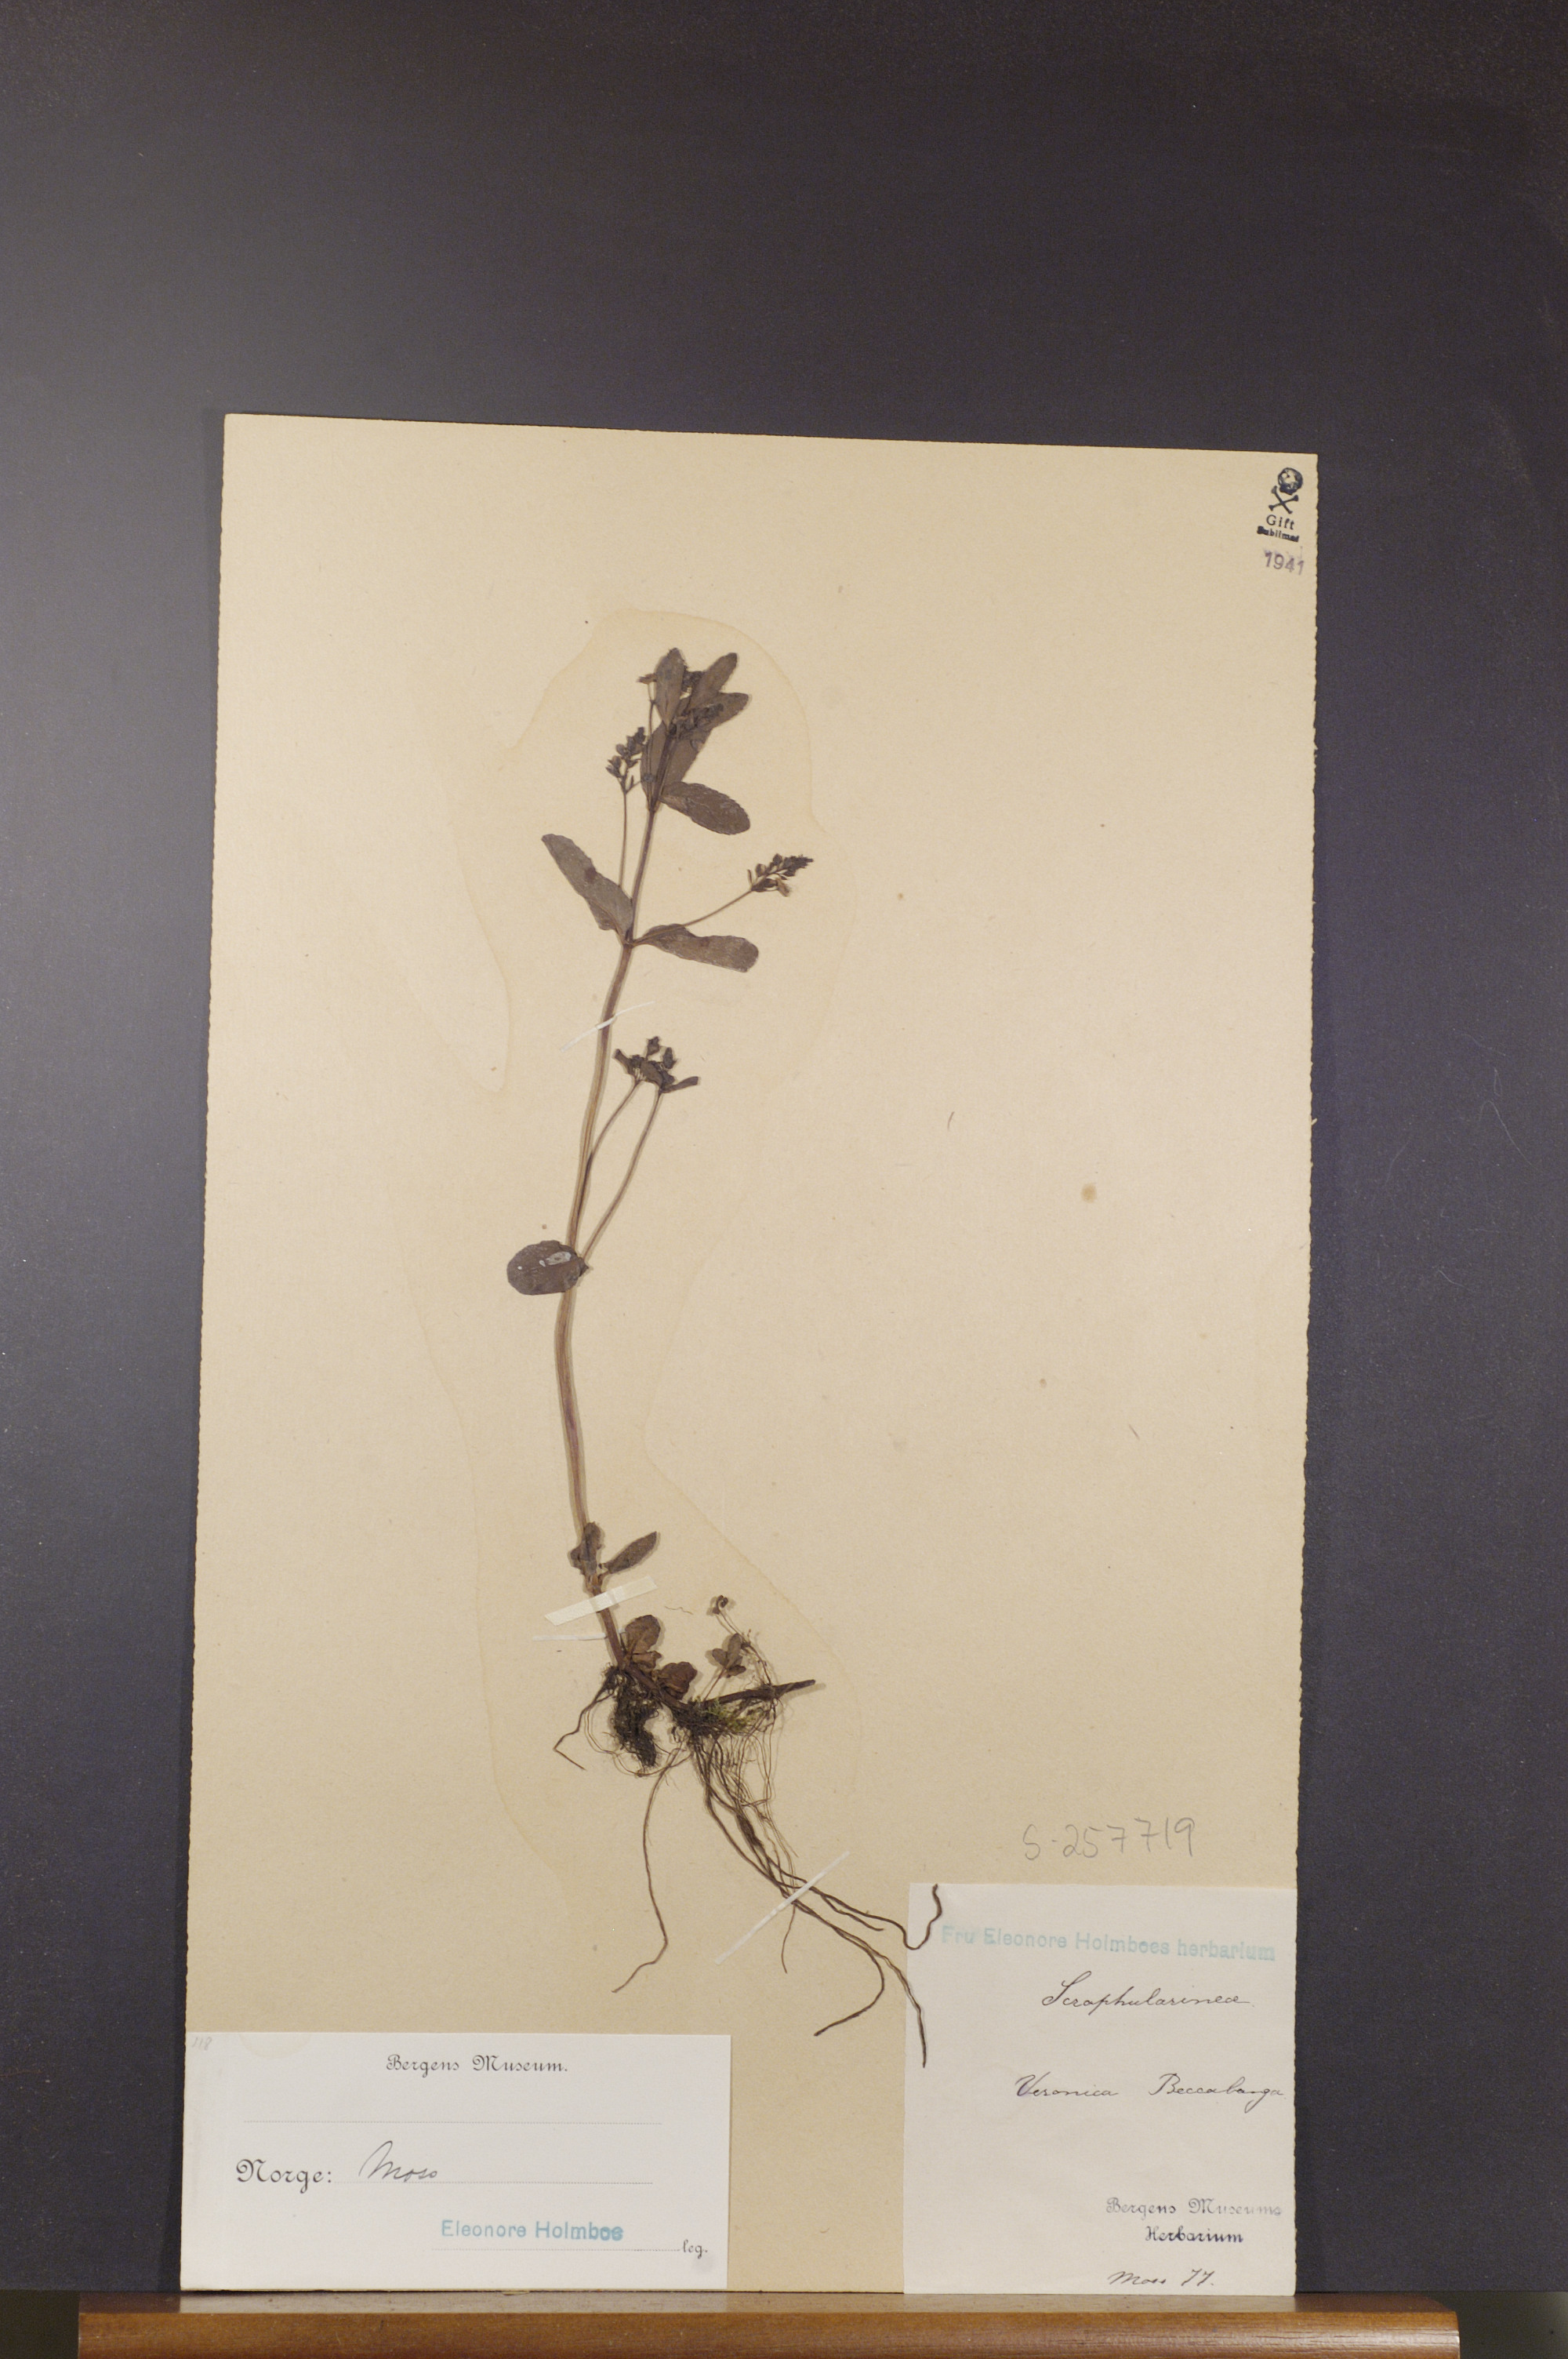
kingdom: Plantae
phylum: Tracheophyta
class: Magnoliopsida
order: Lamiales
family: Plantaginaceae
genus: Veronica
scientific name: Veronica beccabunga
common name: Brooklime
